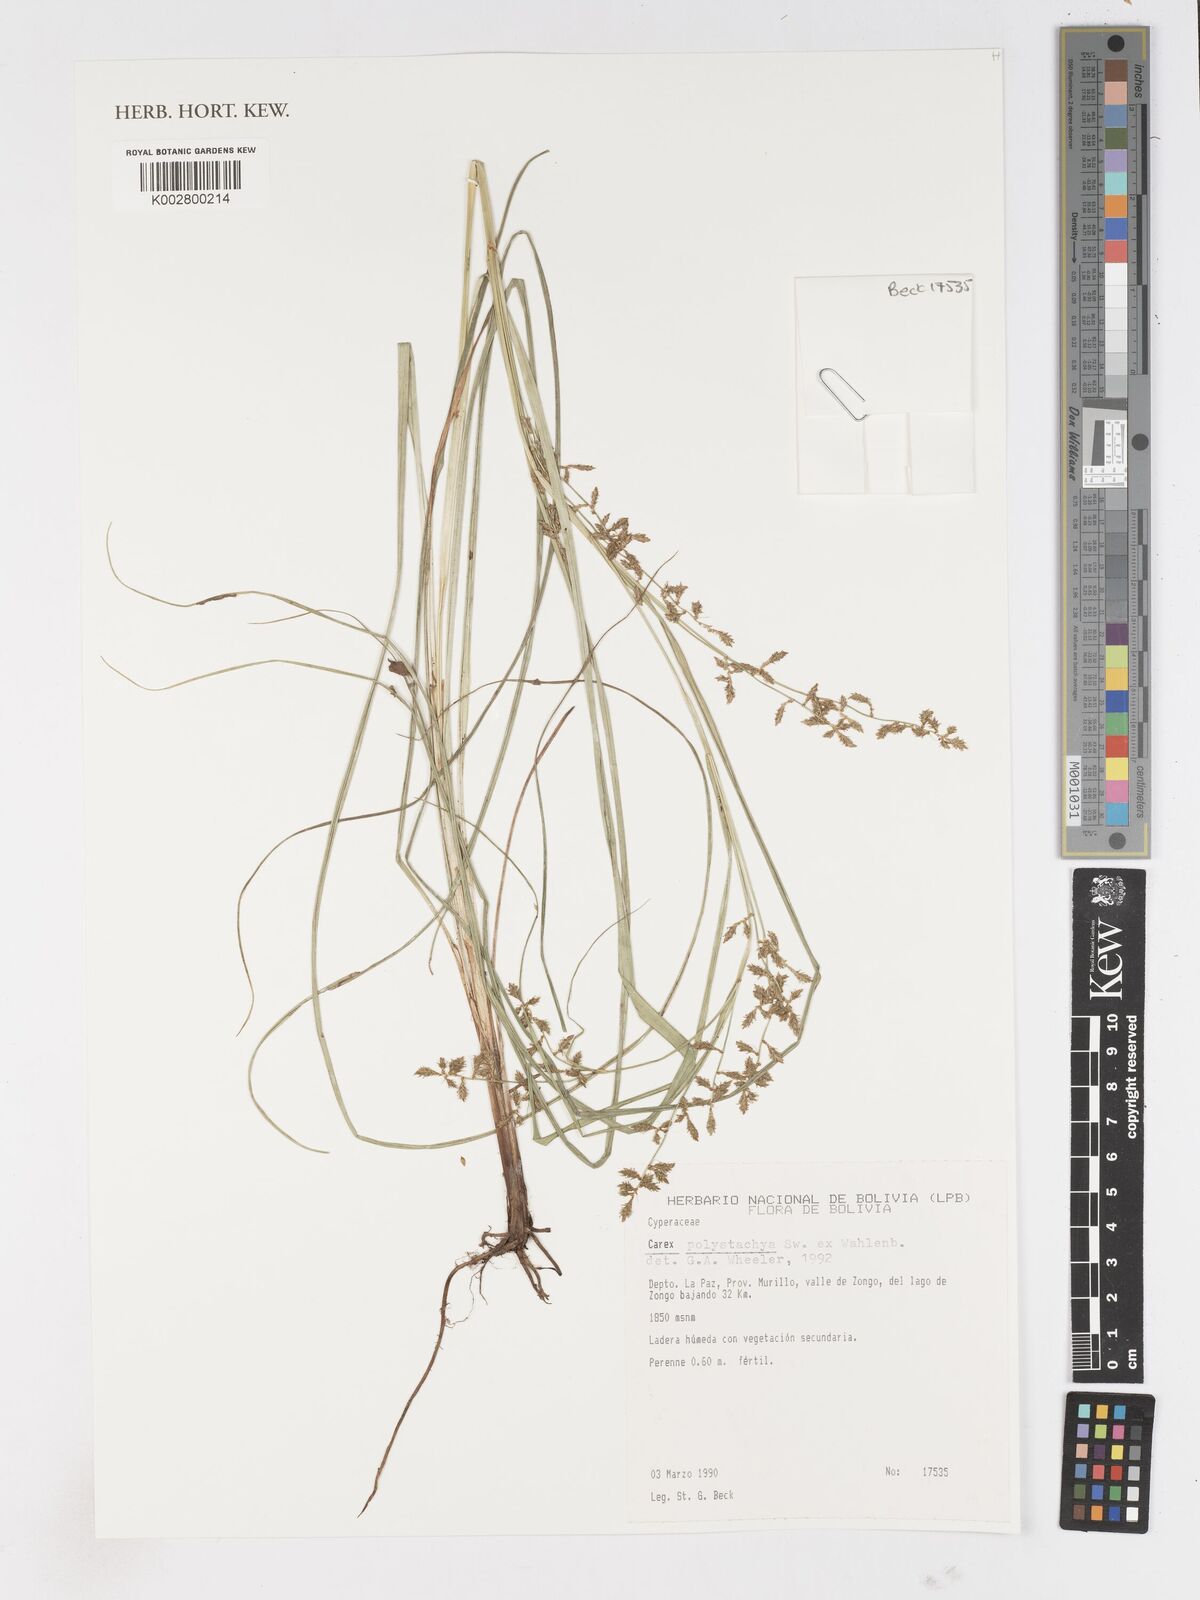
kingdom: Plantae
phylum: Tracheophyta
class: Liliopsida
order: Poales
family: Cyperaceae
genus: Carex
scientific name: Carex polysticha
